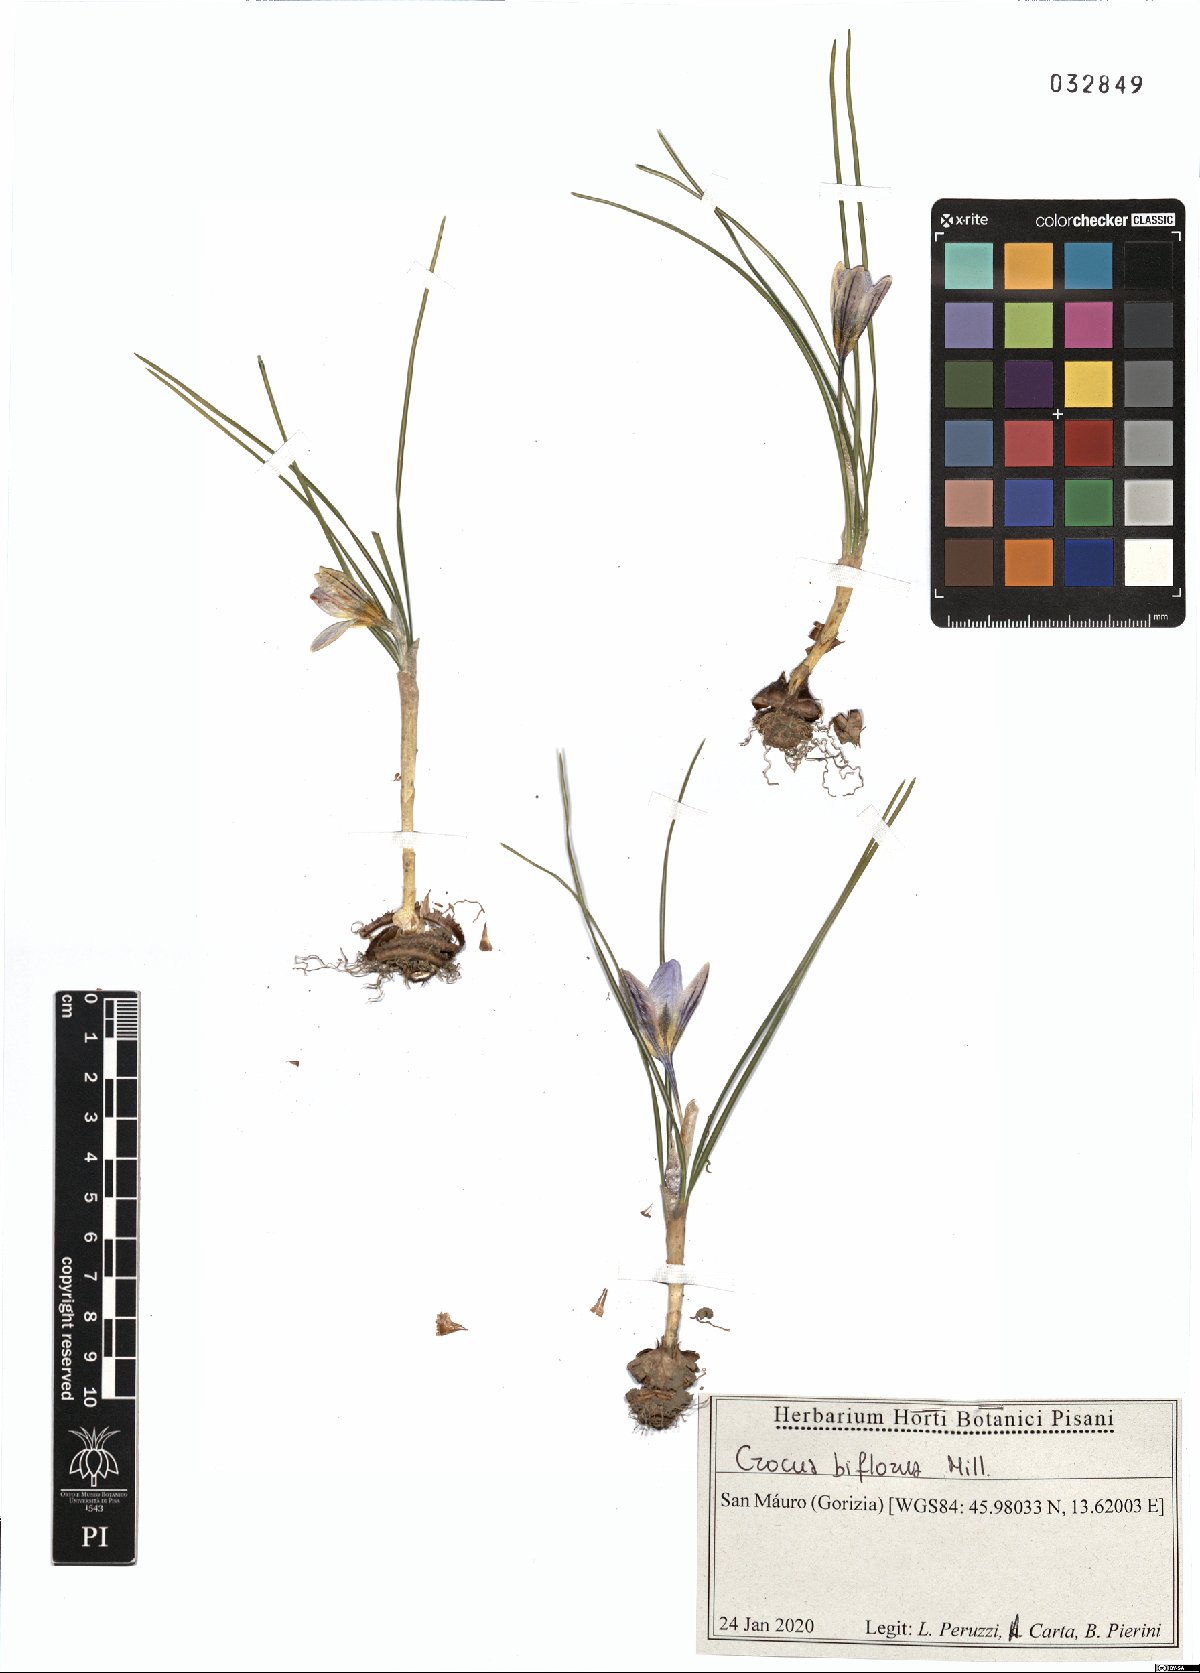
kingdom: Plantae
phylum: Tracheophyta
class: Liliopsida
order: Asparagales
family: Iridaceae
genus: Crocus
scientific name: Crocus biflorus
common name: Silvery crocus
